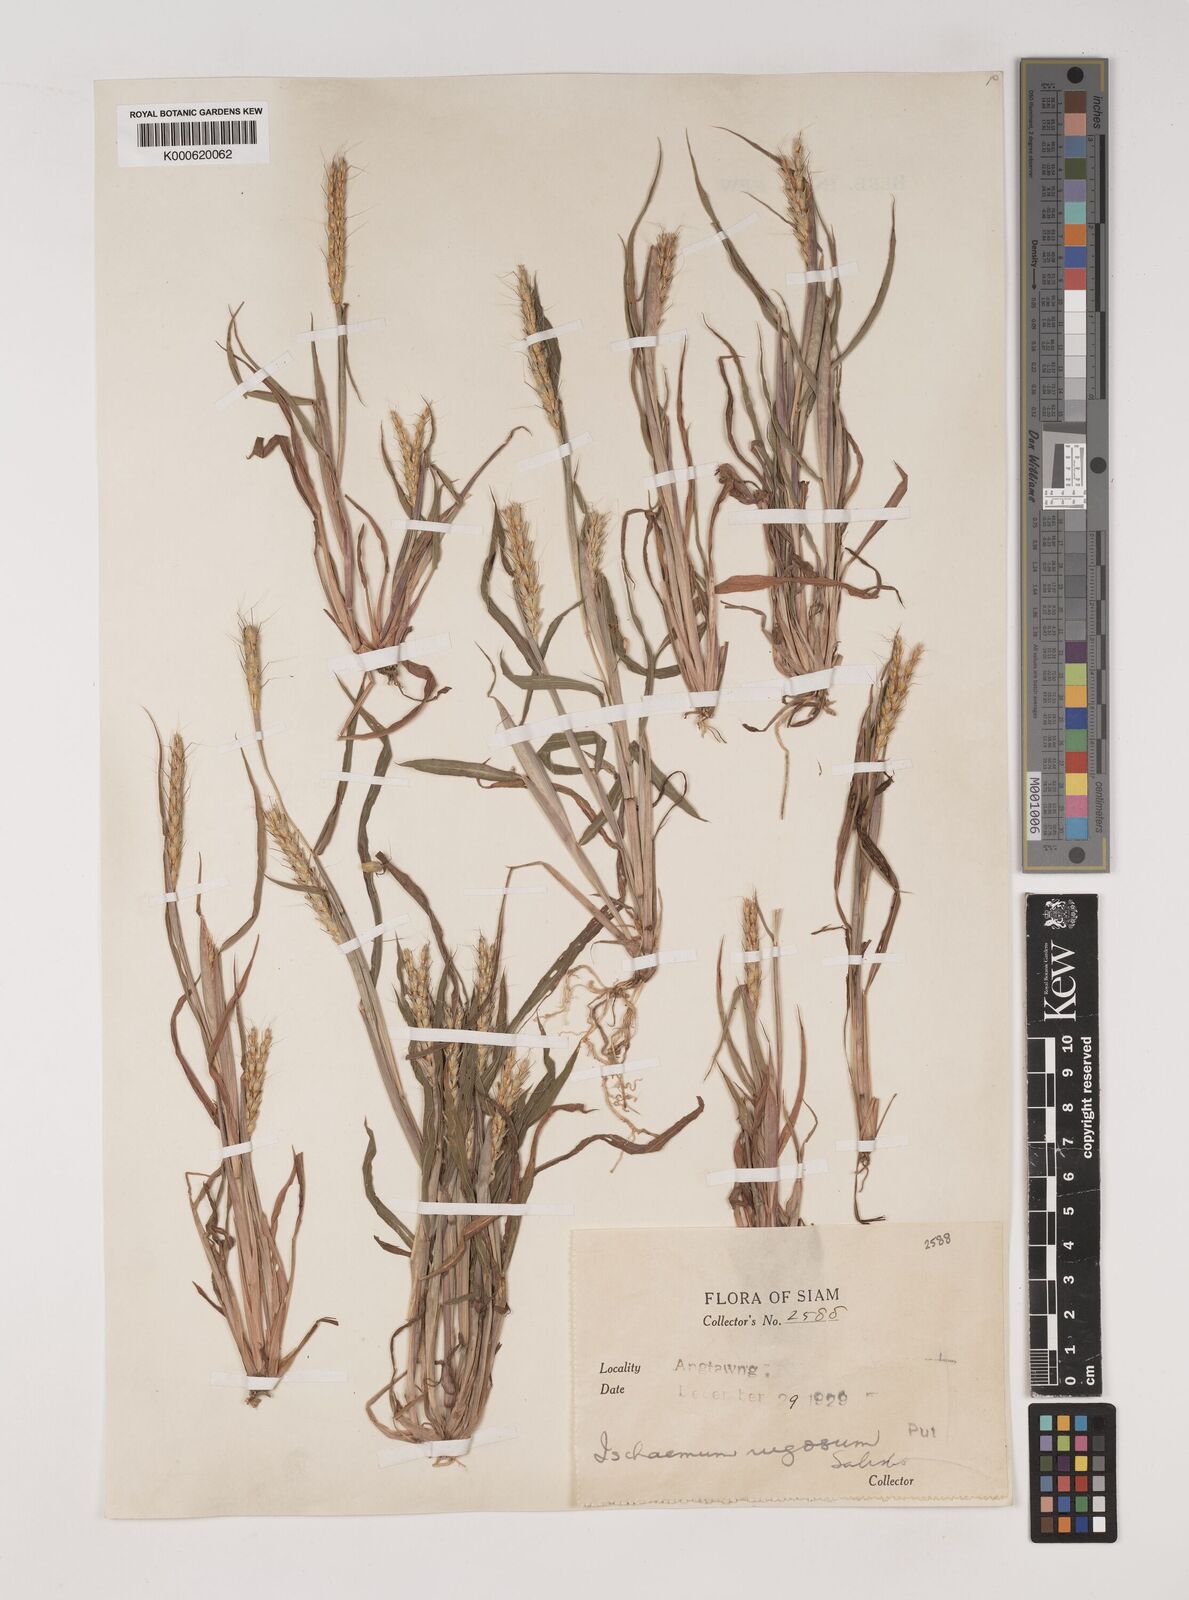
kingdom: Plantae
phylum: Tracheophyta
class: Liliopsida
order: Poales
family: Poaceae
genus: Ischaemum
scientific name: Ischaemum rugosum
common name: Saramatta grass
